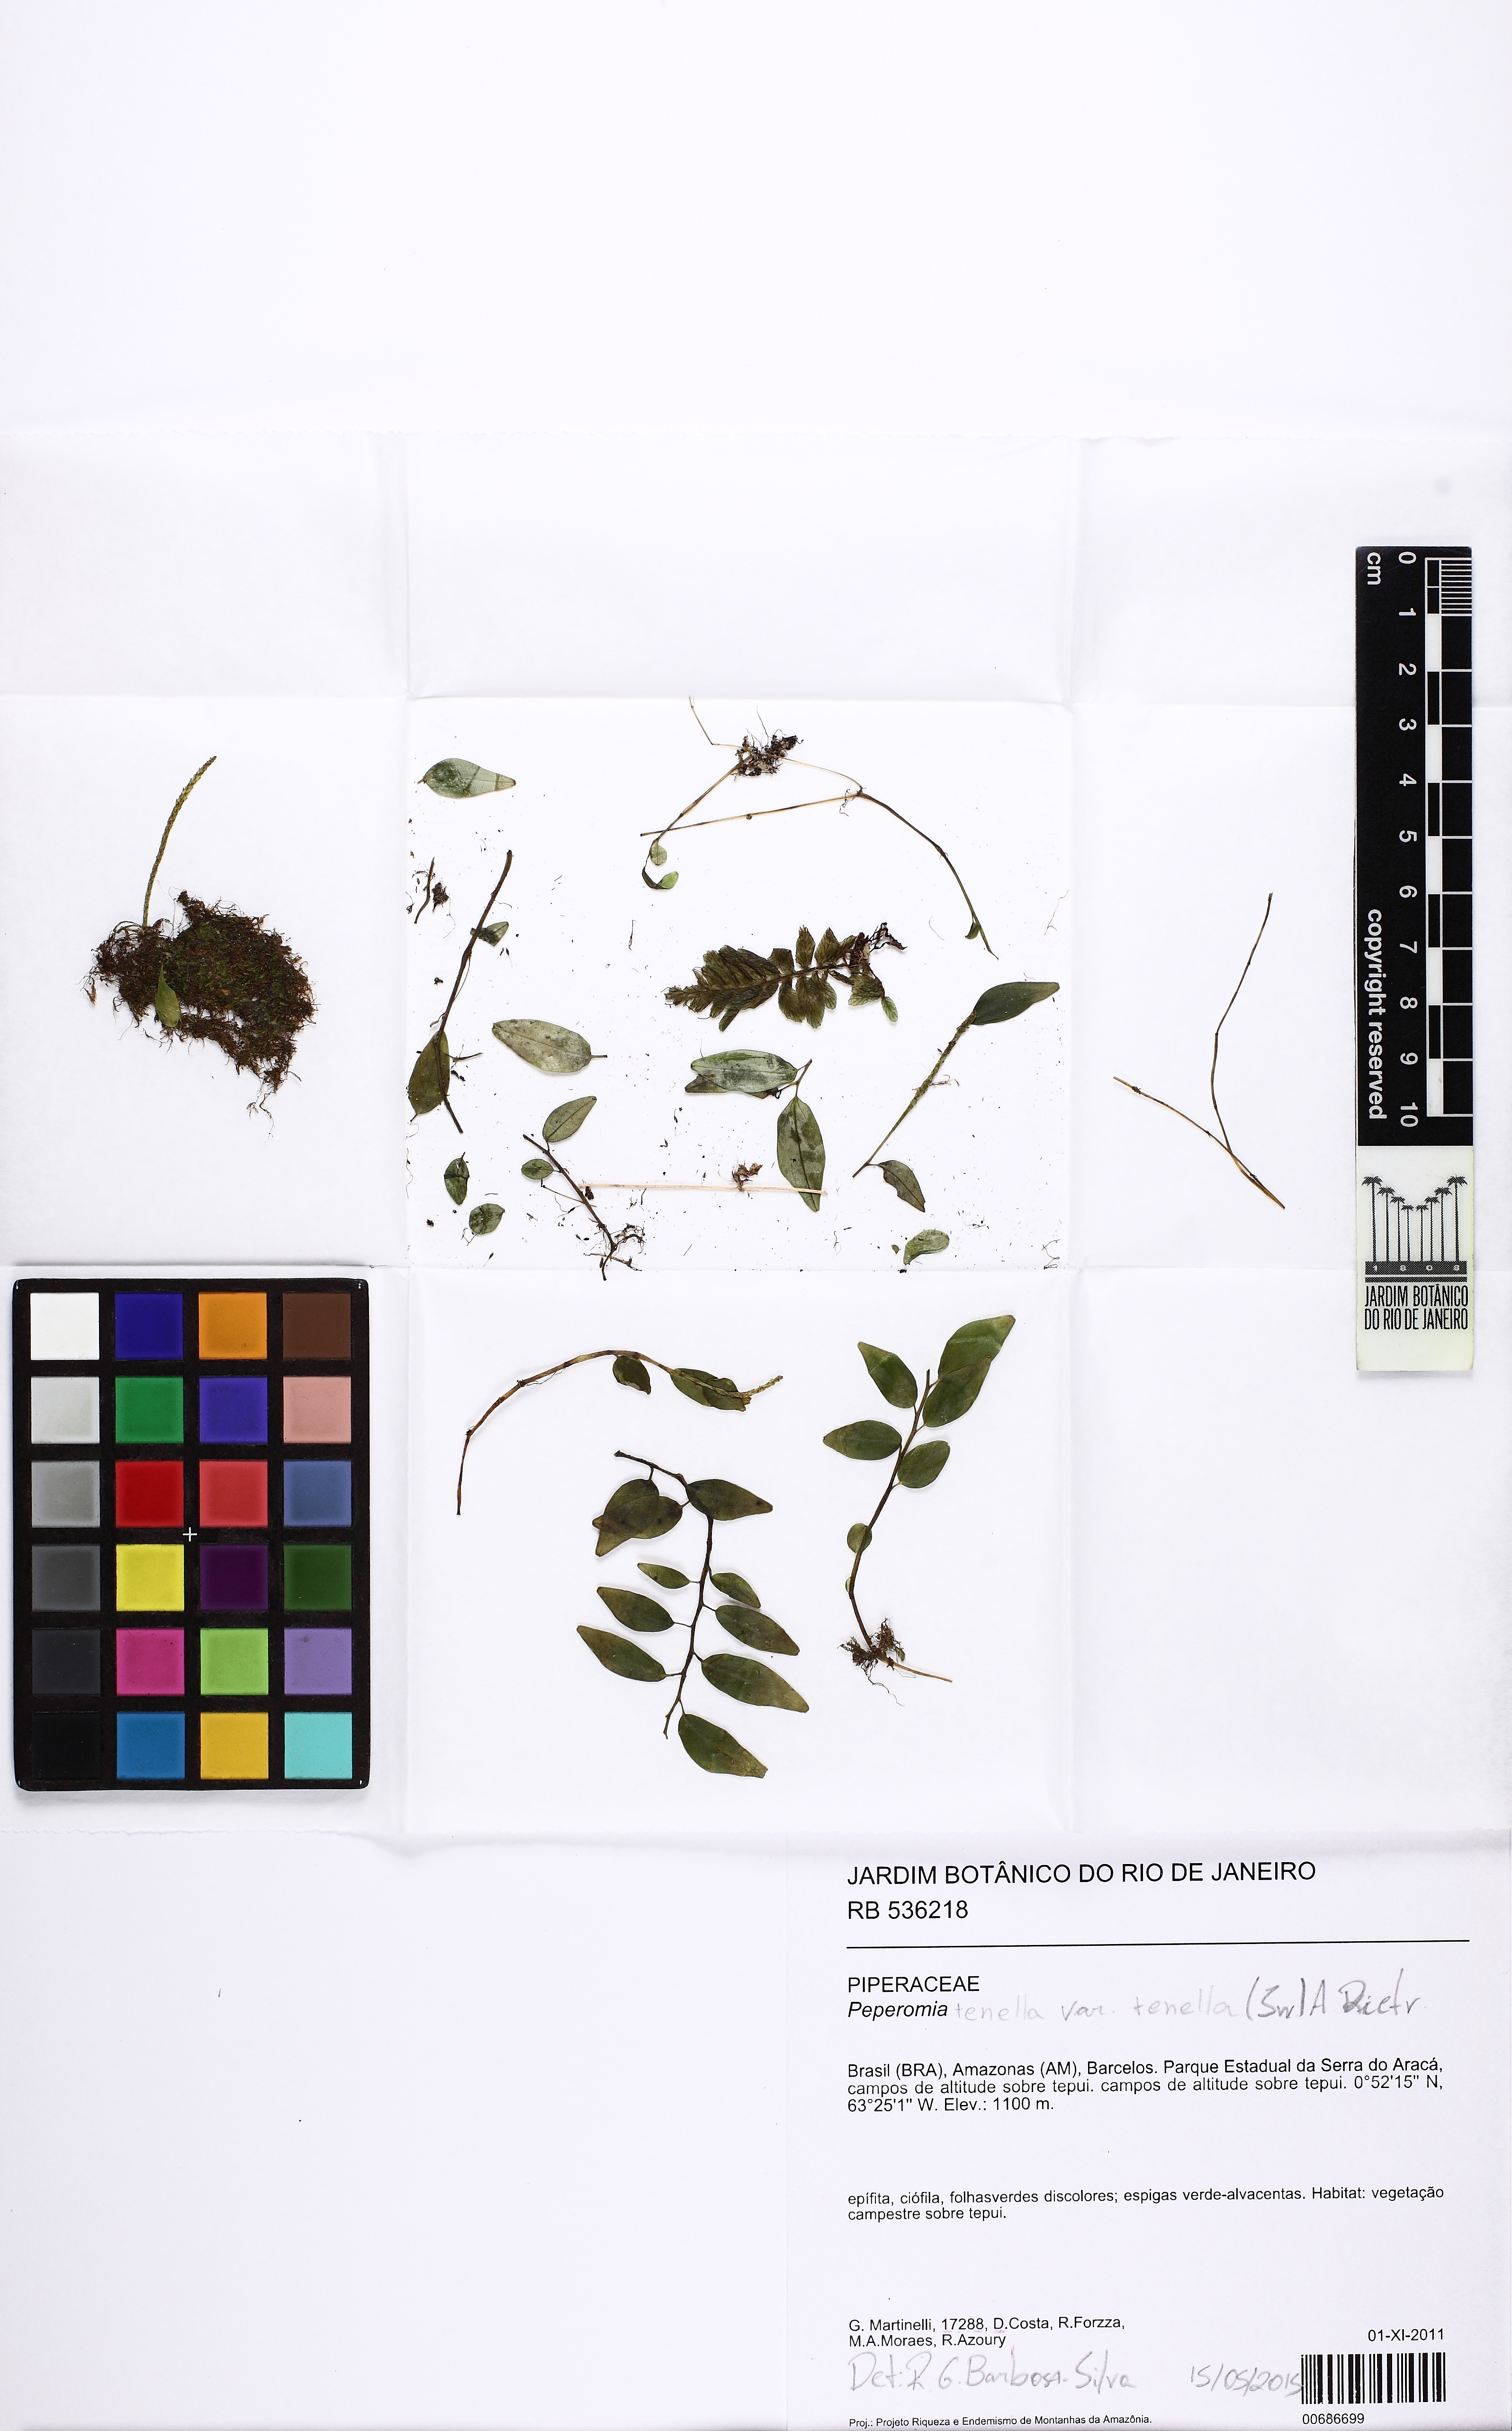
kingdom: Plantae
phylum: Tracheophyta
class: Magnoliopsida
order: Piperales
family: Piperaceae
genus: Peperomia
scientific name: Peperomia tenuipes
